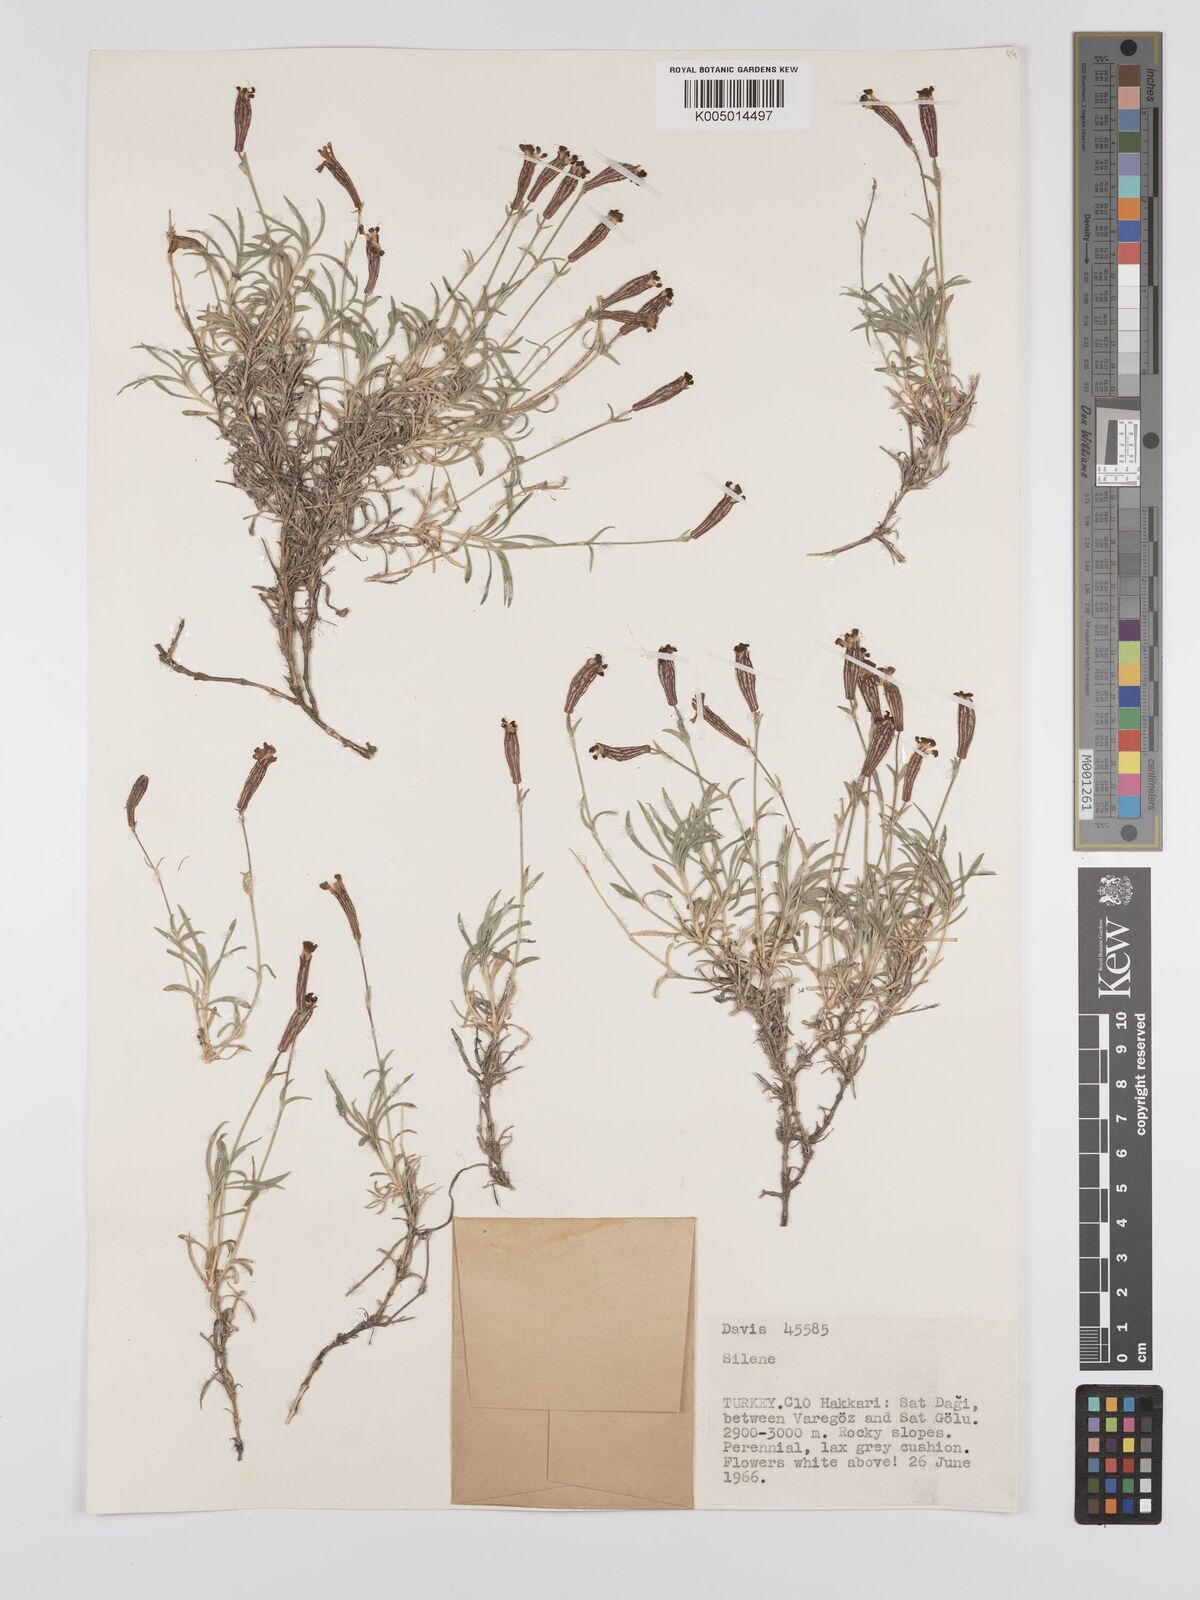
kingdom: Plantae
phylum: Tracheophyta
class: Magnoliopsida
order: Caryophyllales
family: Caryophyllaceae
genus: Silene
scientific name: Silene
